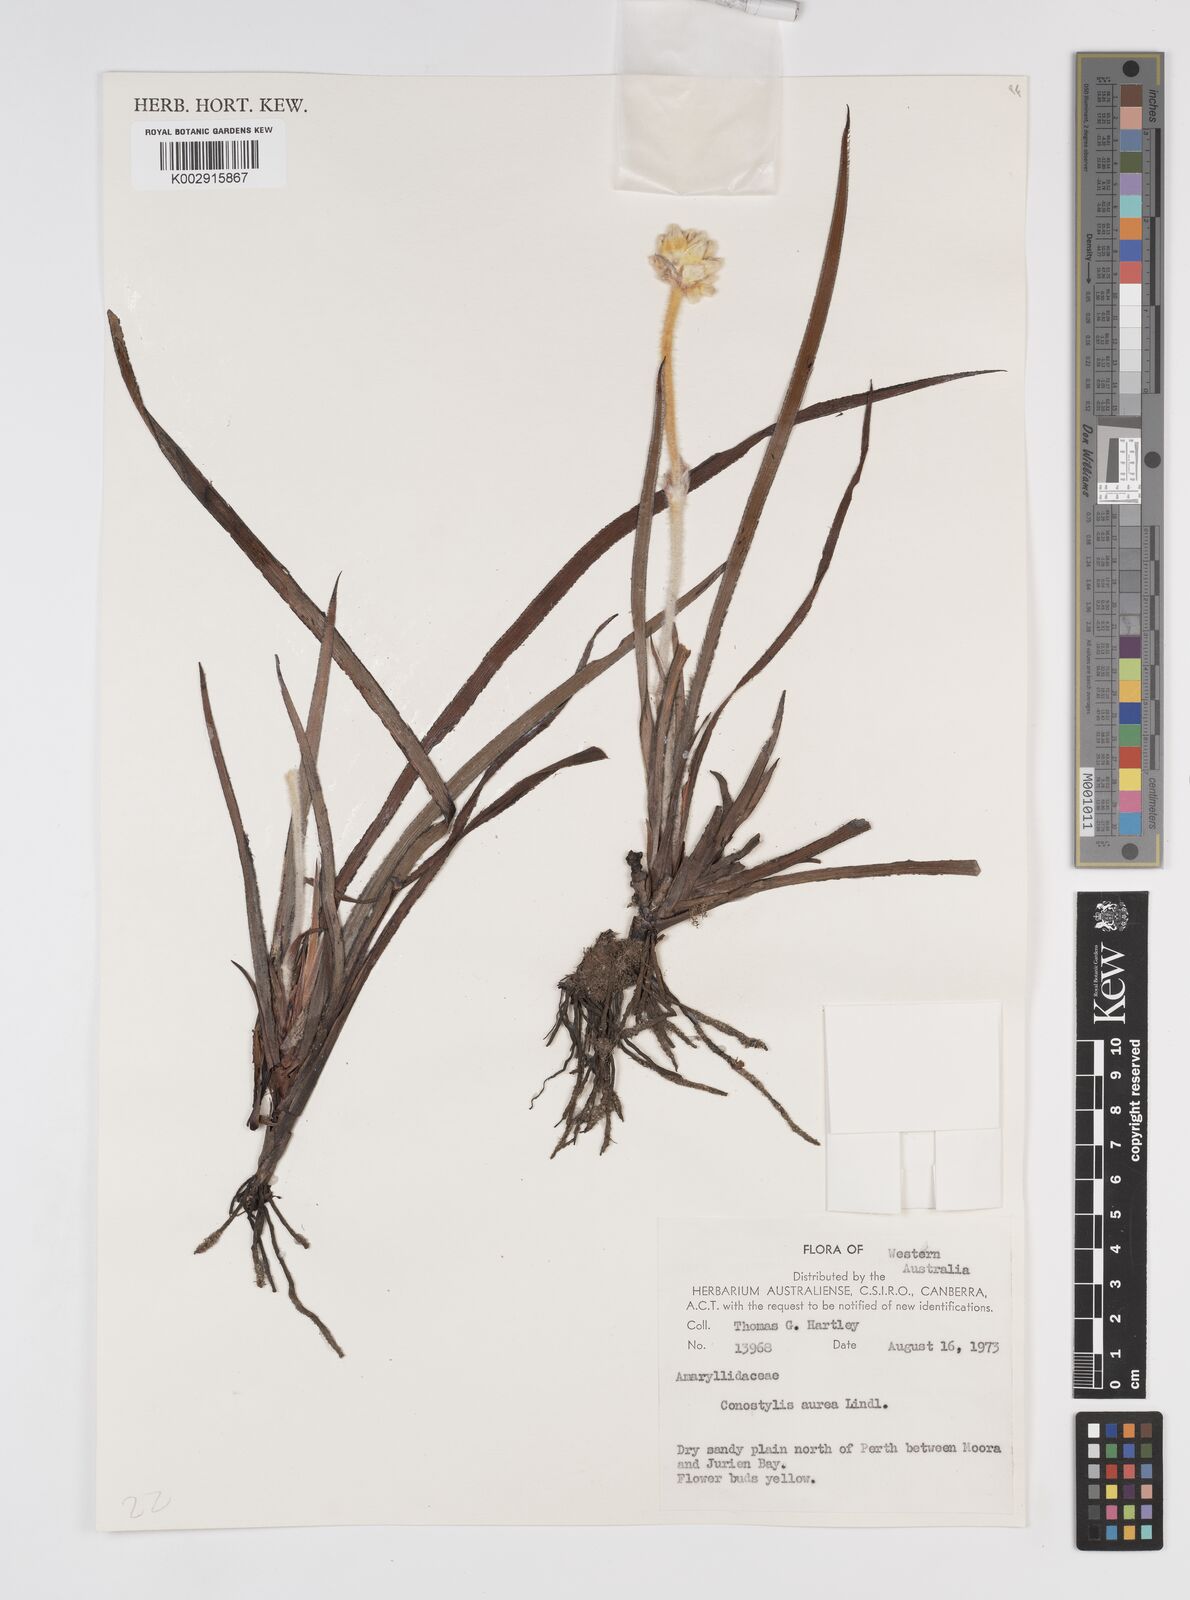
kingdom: Plantae
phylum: Tracheophyta
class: Liliopsida
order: Commelinales
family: Haemodoraceae
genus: Conostylis
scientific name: Conostylis aurea
